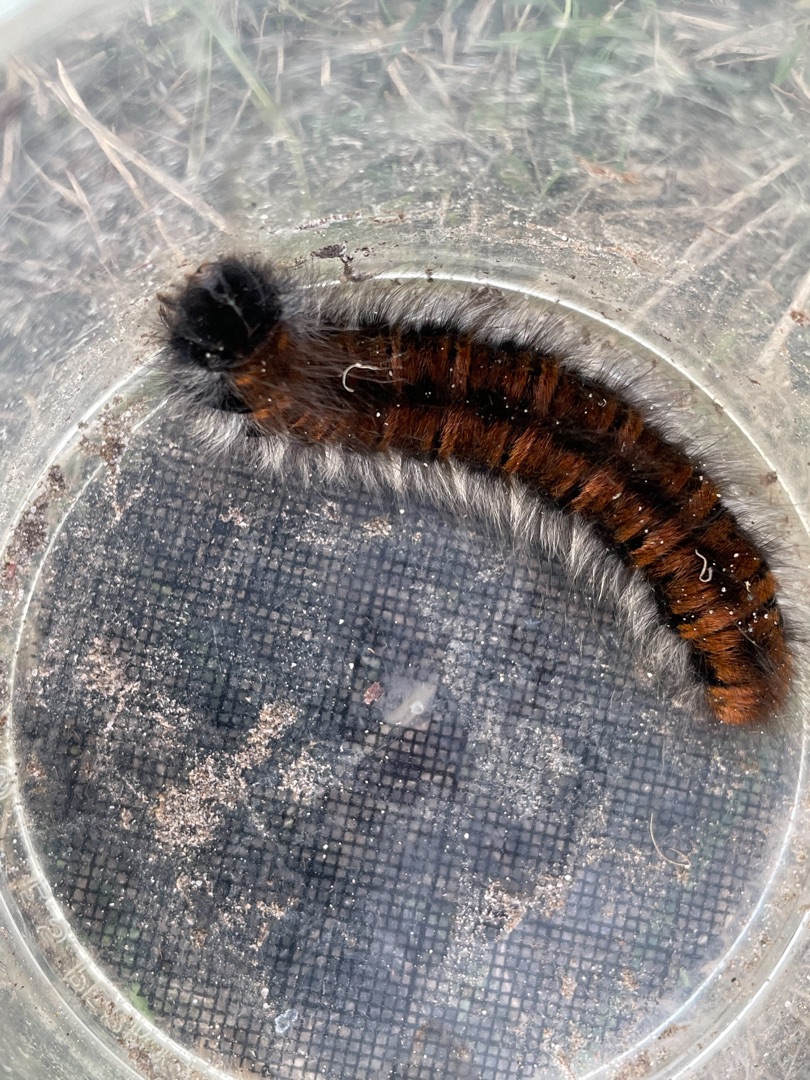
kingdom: Animalia
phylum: Arthropoda
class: Insecta
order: Lepidoptera
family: Lasiocampidae
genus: Macrothylacia
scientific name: Macrothylacia rubi
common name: Brombærspinder
